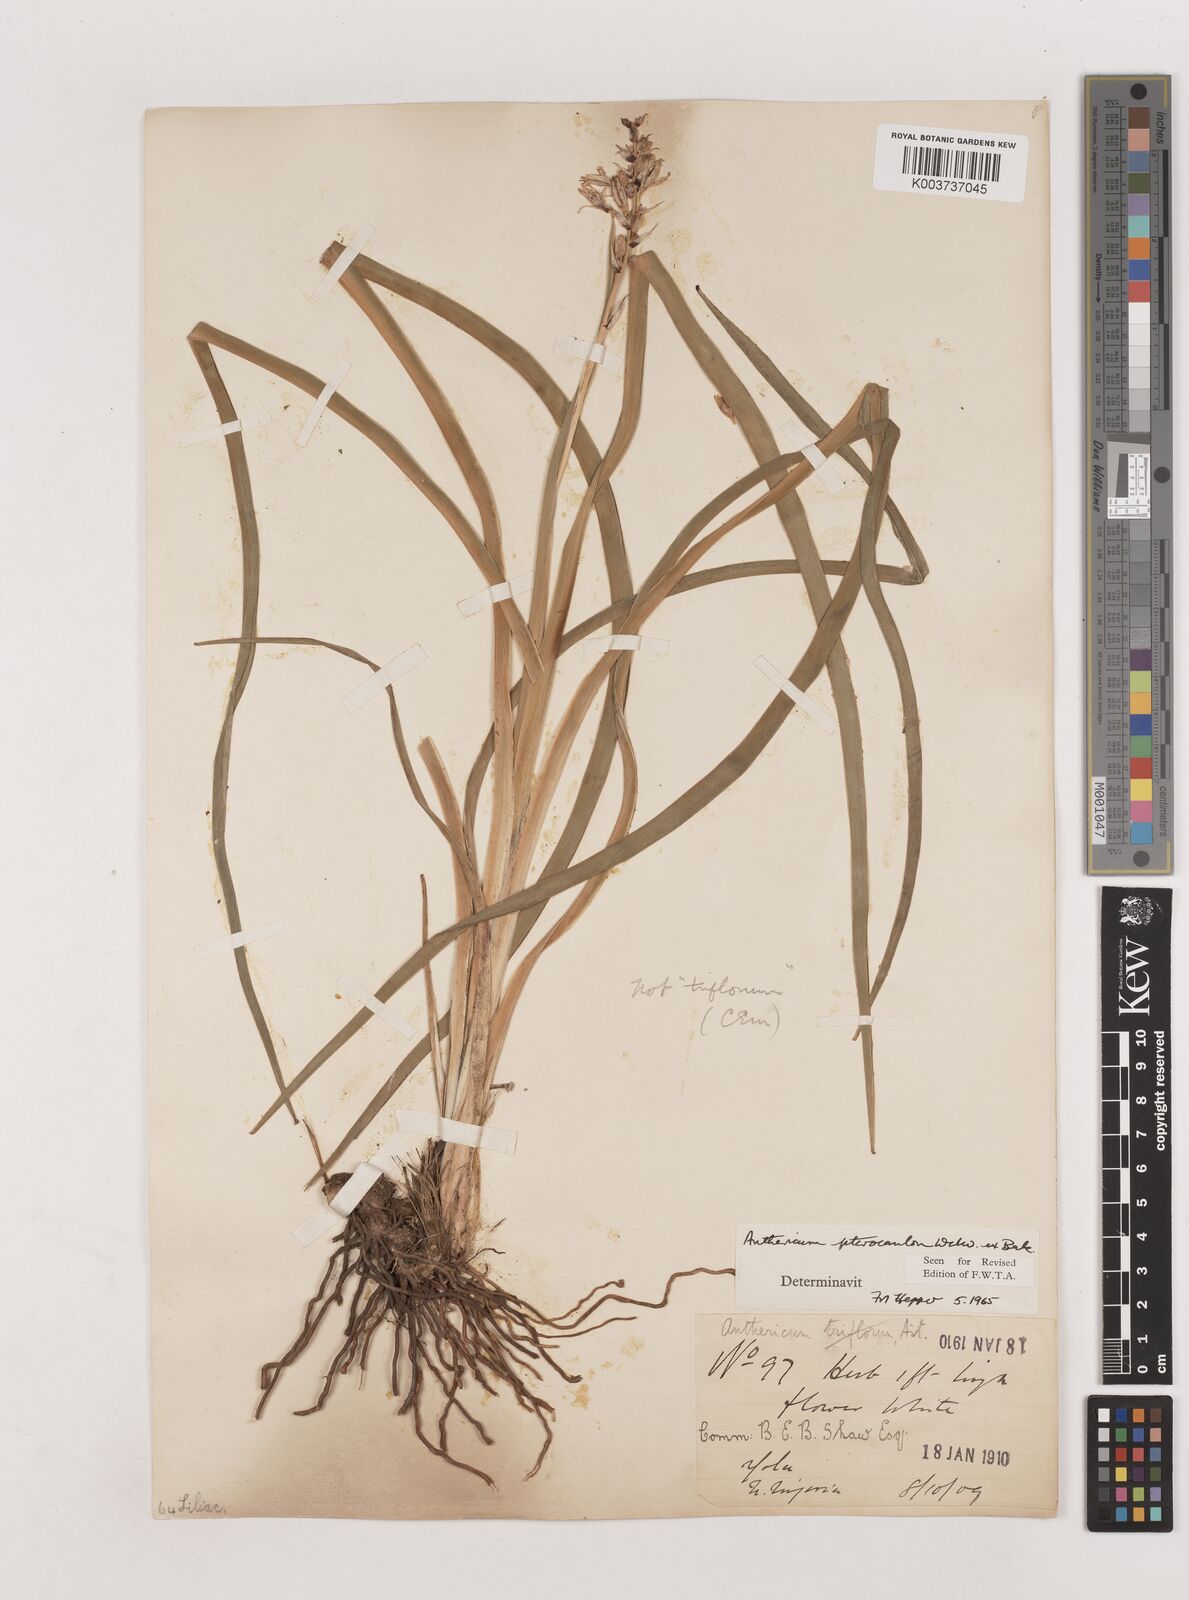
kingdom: Plantae
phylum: Tracheophyta
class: Liliopsida
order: Asparagales
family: Asparagaceae
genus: Chlorophytum
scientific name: Chlorophytum cameronii
